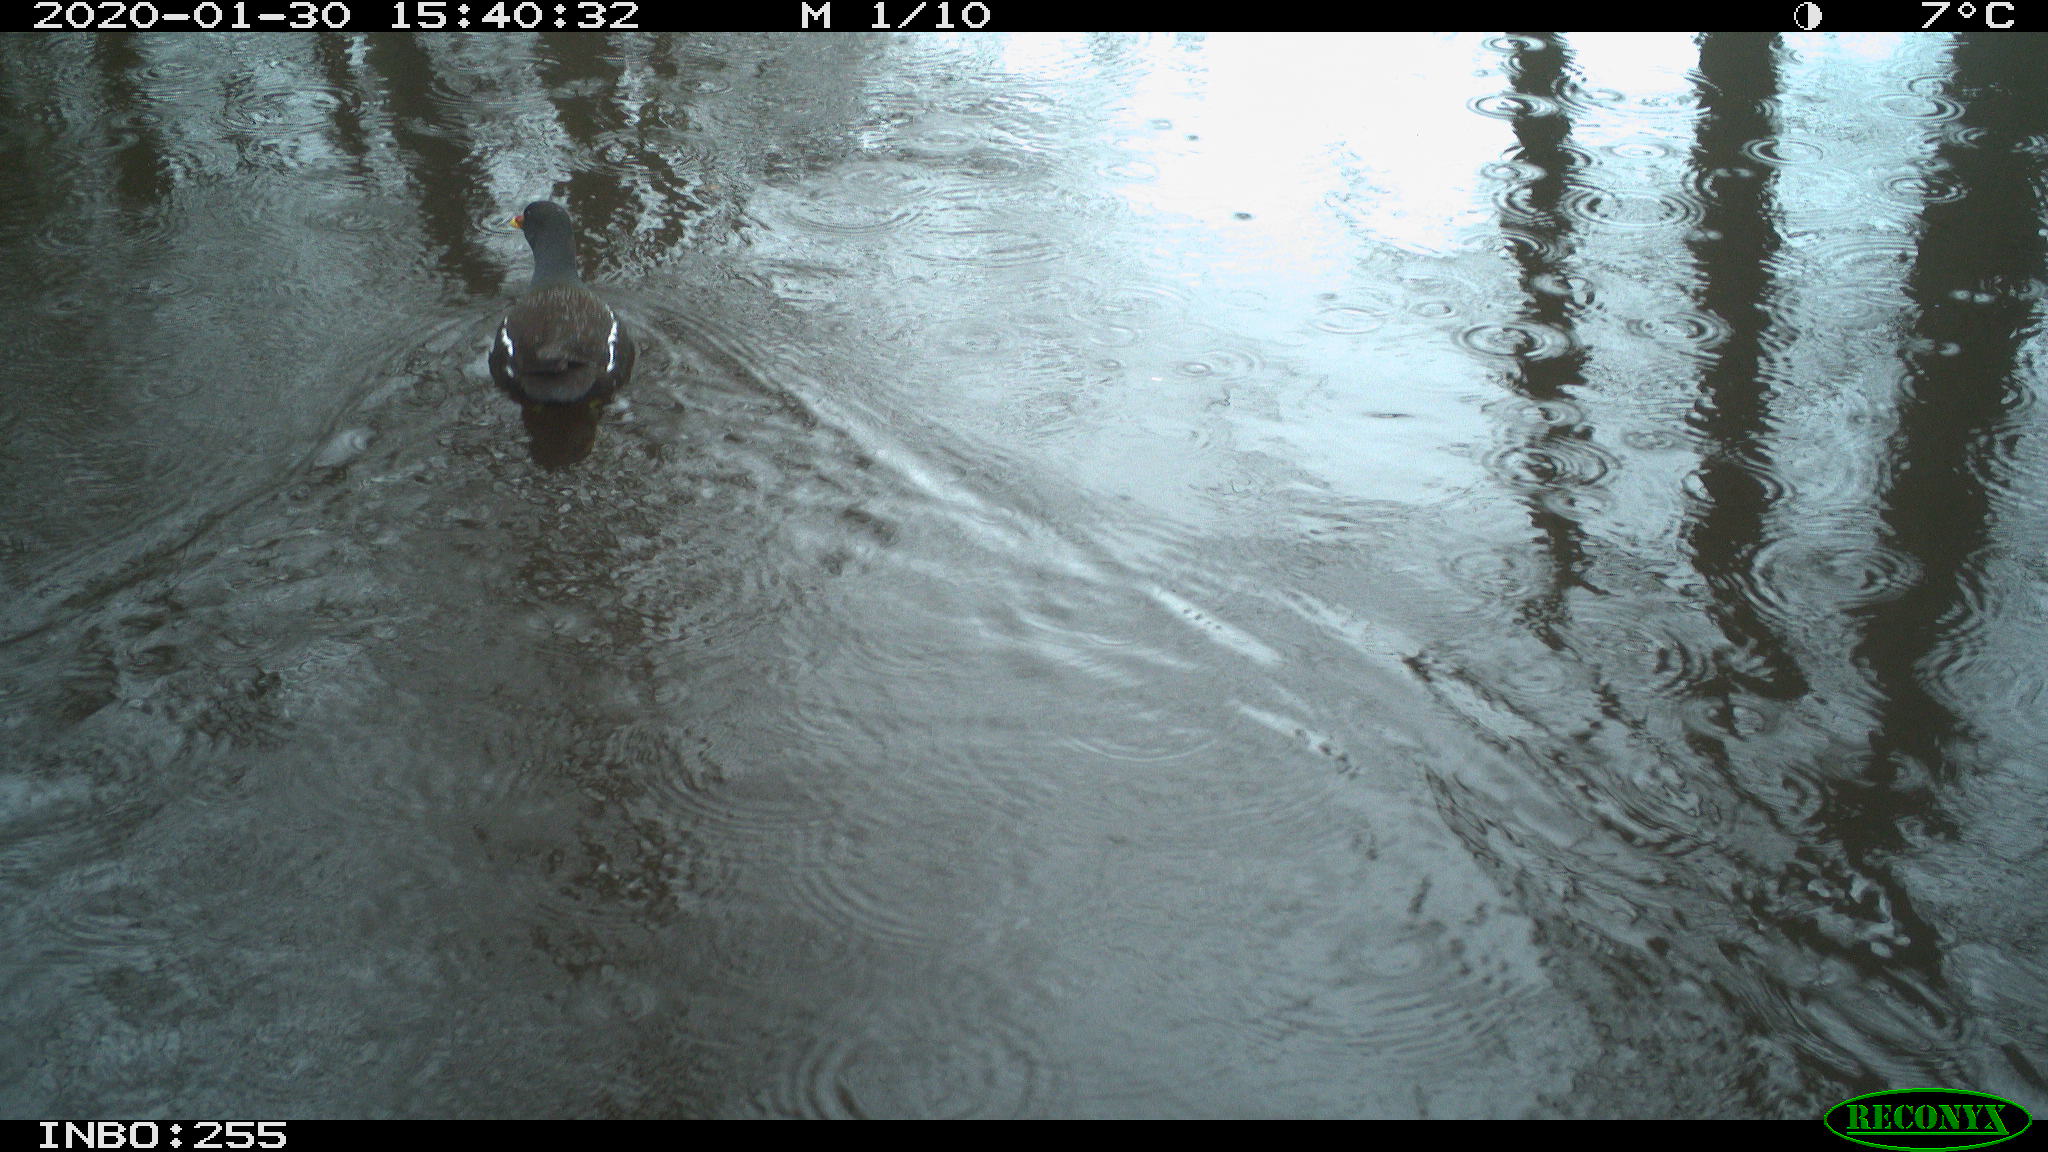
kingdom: Animalia
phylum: Chordata
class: Aves
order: Gruiformes
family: Rallidae
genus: Gallinula
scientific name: Gallinula chloropus
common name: Common moorhen
